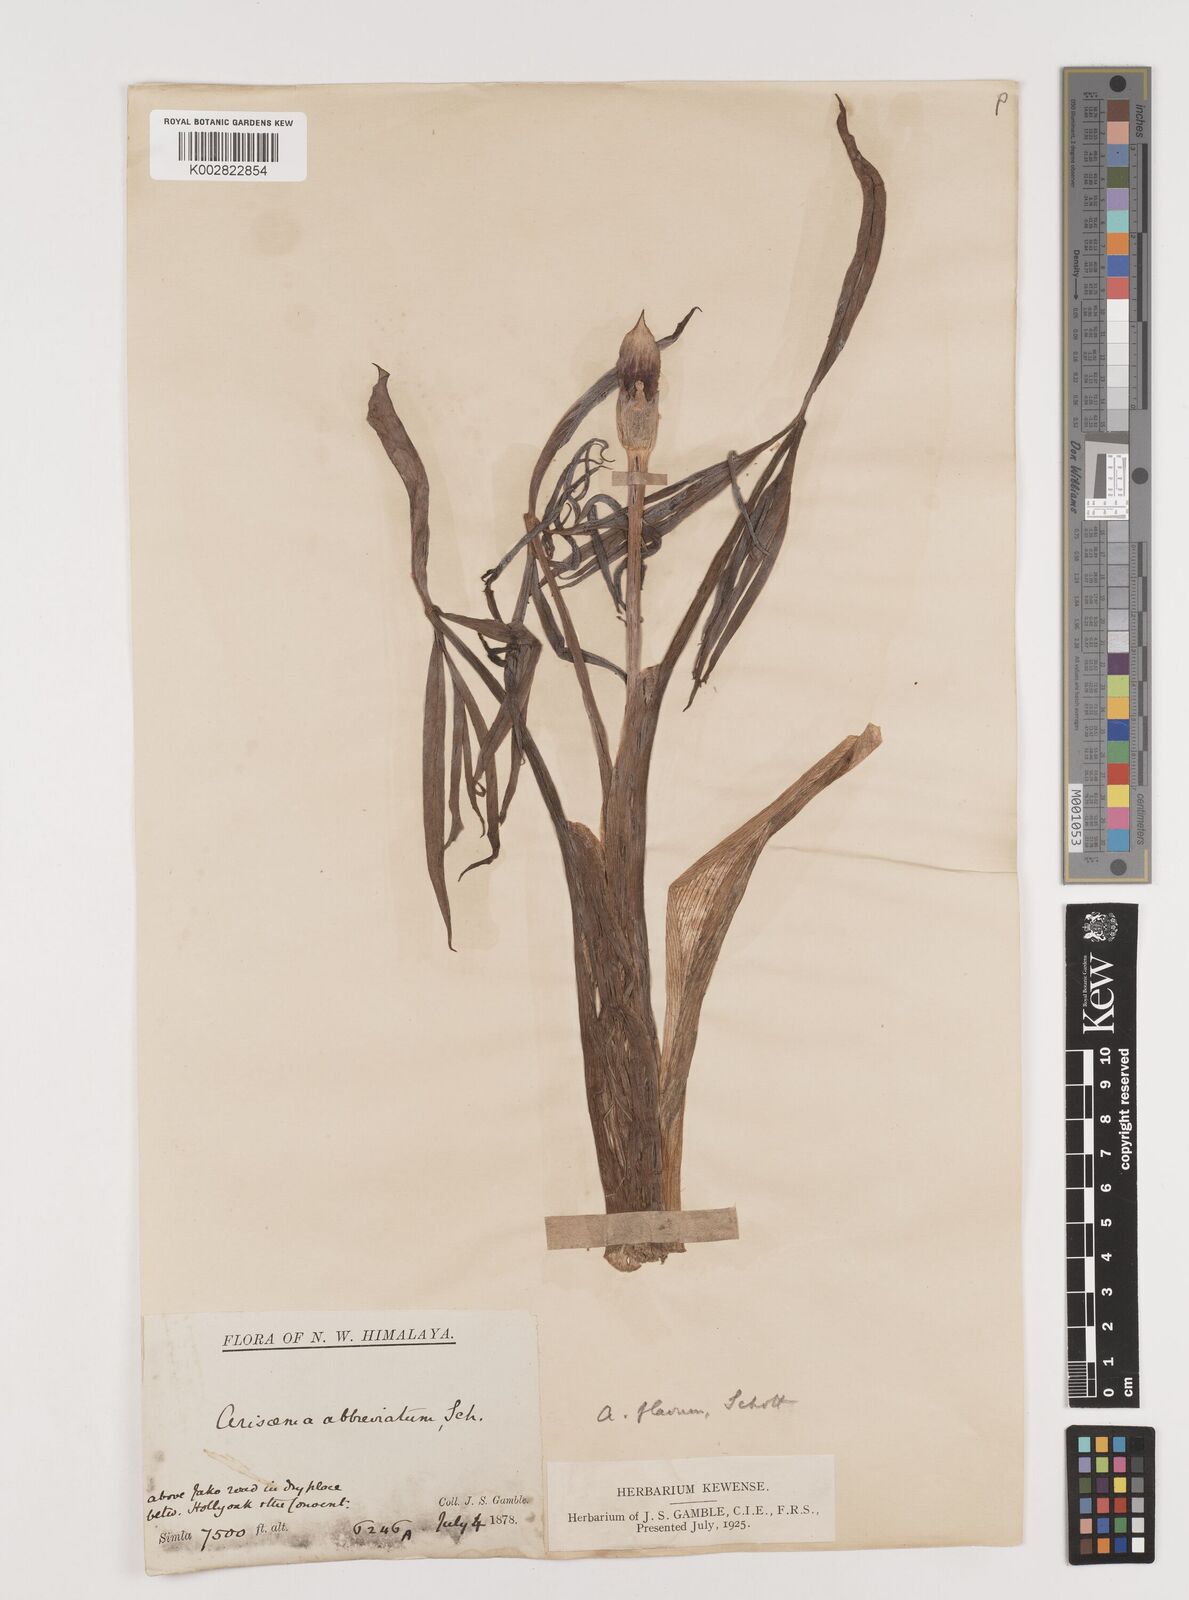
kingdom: Plantae
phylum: Tracheophyta
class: Liliopsida
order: Alismatales
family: Araceae
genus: Arisaema
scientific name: Arisaema flavum
